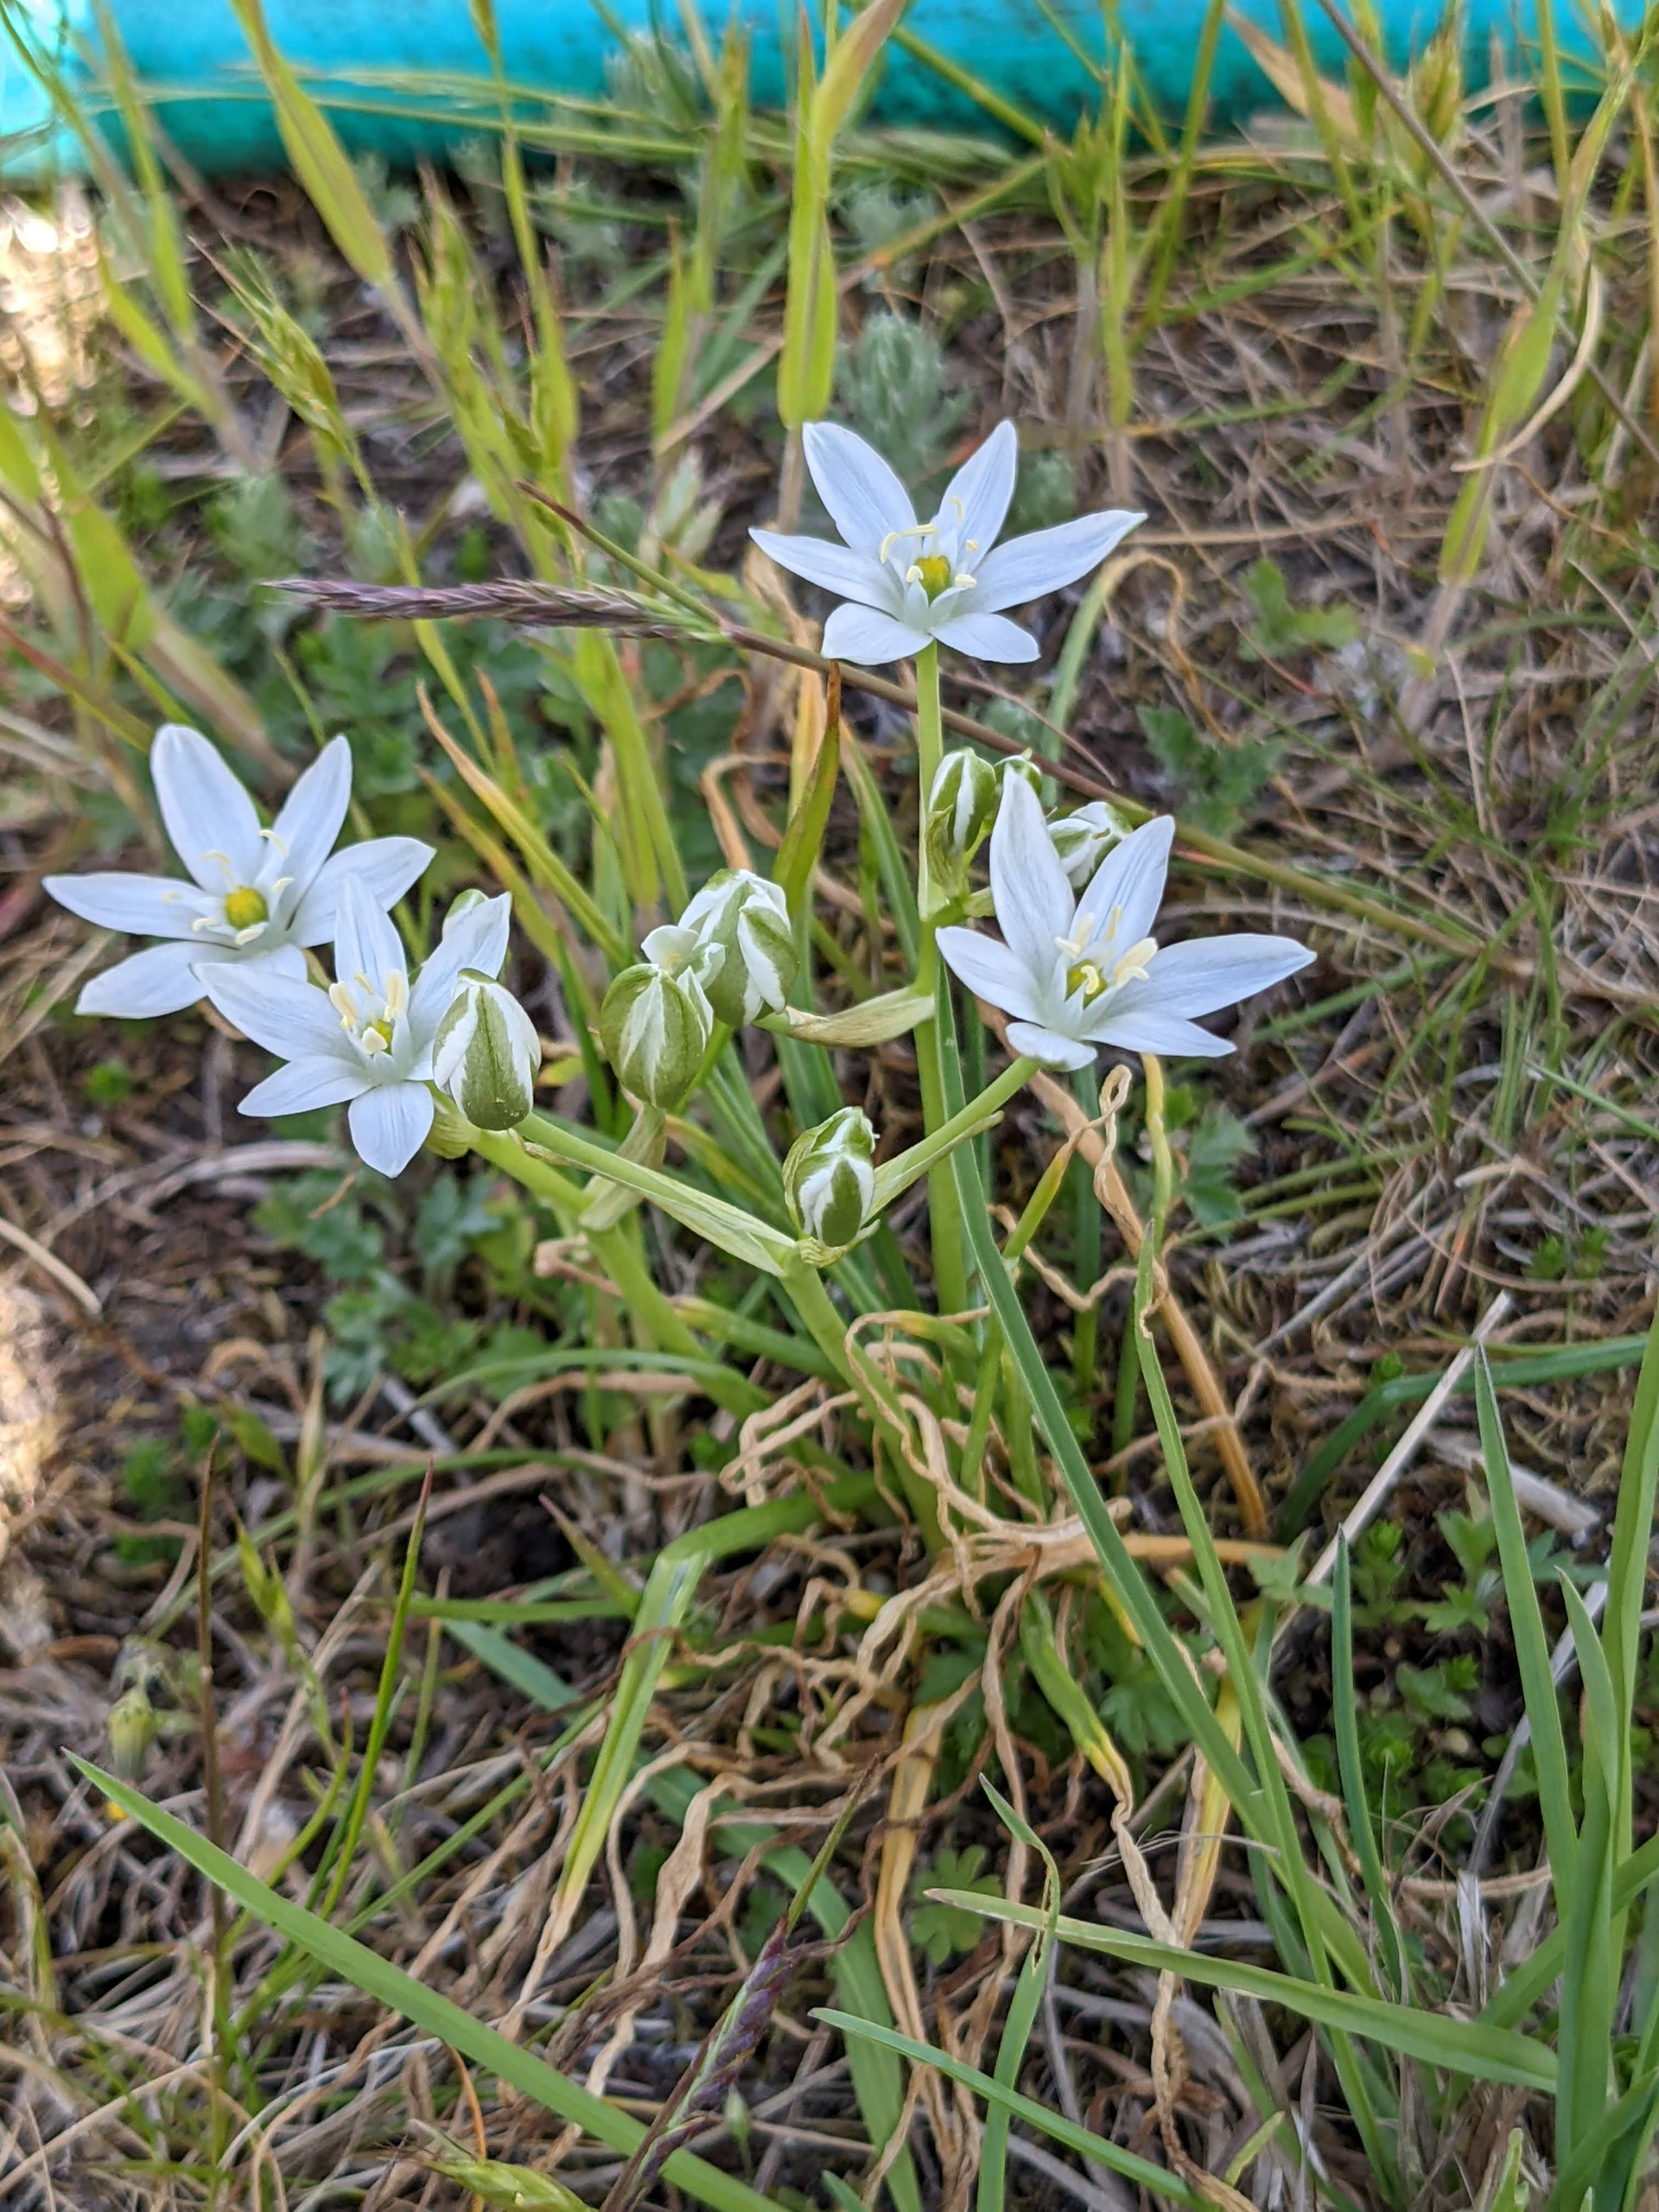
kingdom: Plantae
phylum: Tracheophyta
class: Liliopsida
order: Asparagales
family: Asparagaceae
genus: Ornithogalum
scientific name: Ornithogalum umbellatum
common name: Kost-fuglemælk
